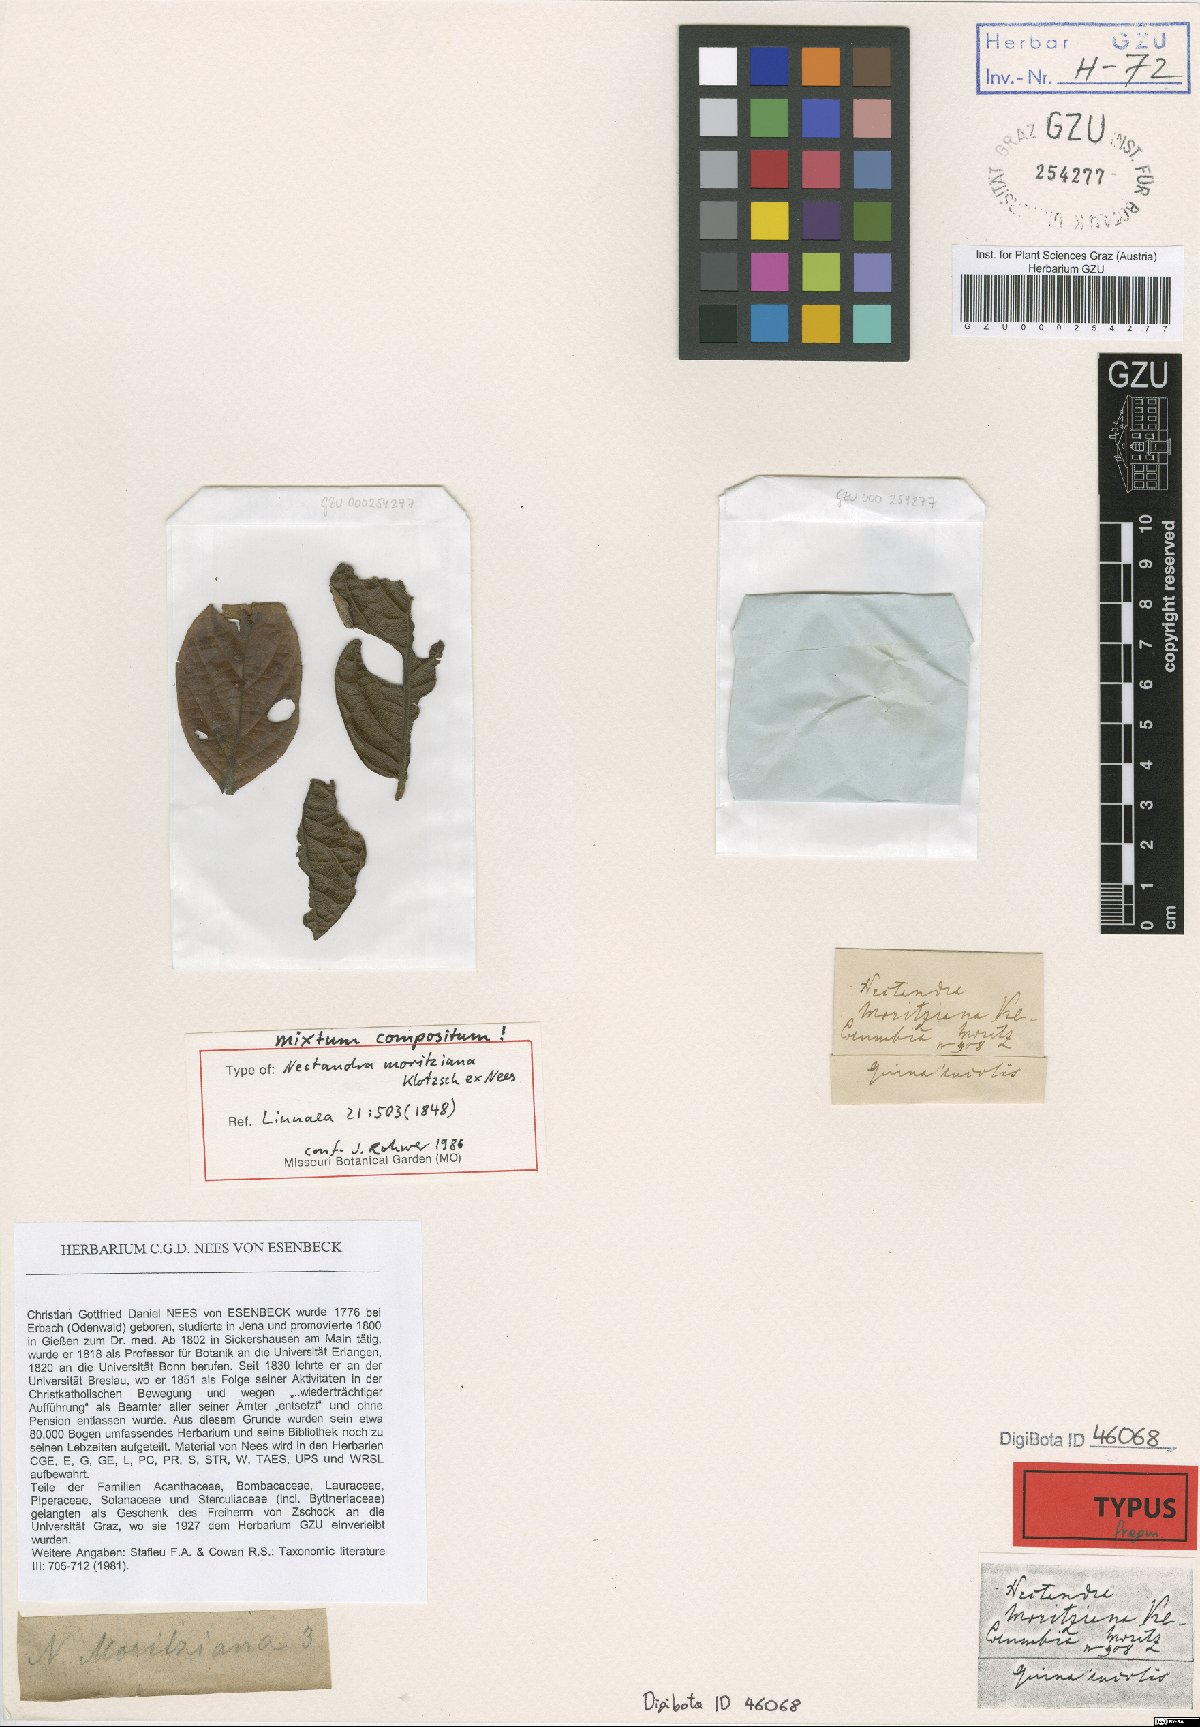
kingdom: Plantae
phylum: Tracheophyta
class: Magnoliopsida
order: Laurales
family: Lauraceae
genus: Nectandra
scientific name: Nectandra moritziana
